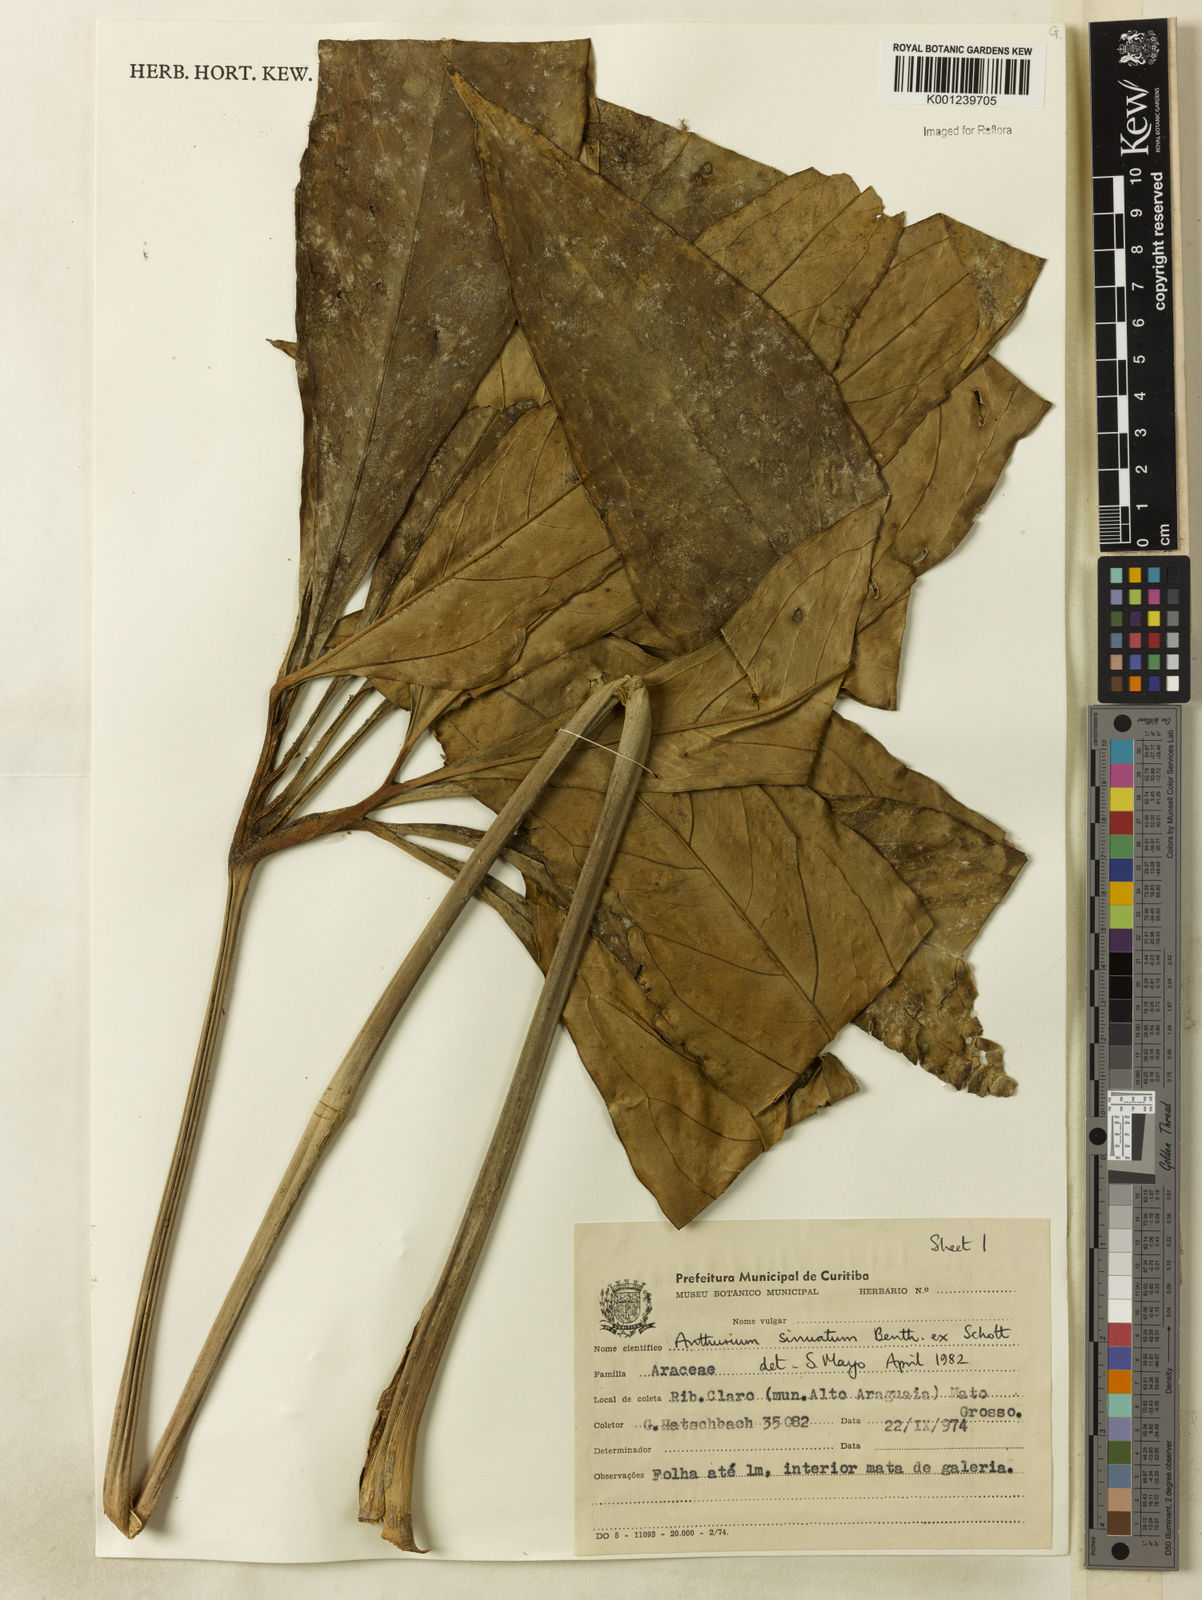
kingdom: Plantae
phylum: Tracheophyta
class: Liliopsida
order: Alismatales
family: Araceae
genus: Anthurium
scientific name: Anthurium sinuatum
